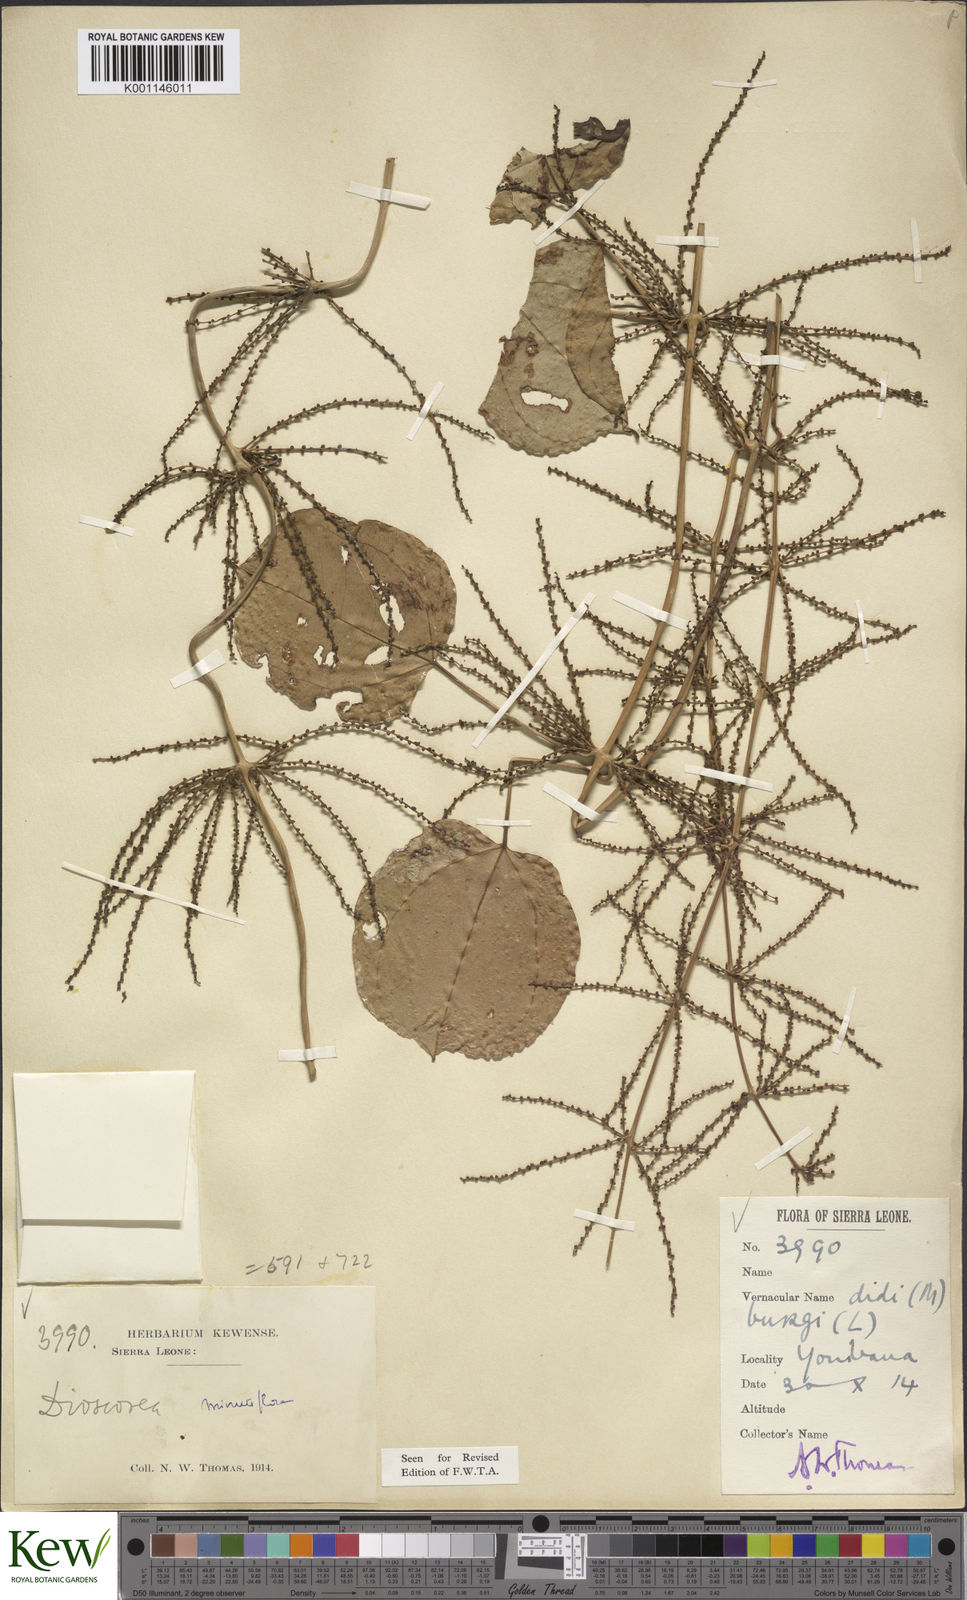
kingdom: Plantae
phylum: Tracheophyta
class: Liliopsida
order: Dioscoreales
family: Dioscoreaceae
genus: Dioscorea
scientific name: Dioscorea minutiflora
